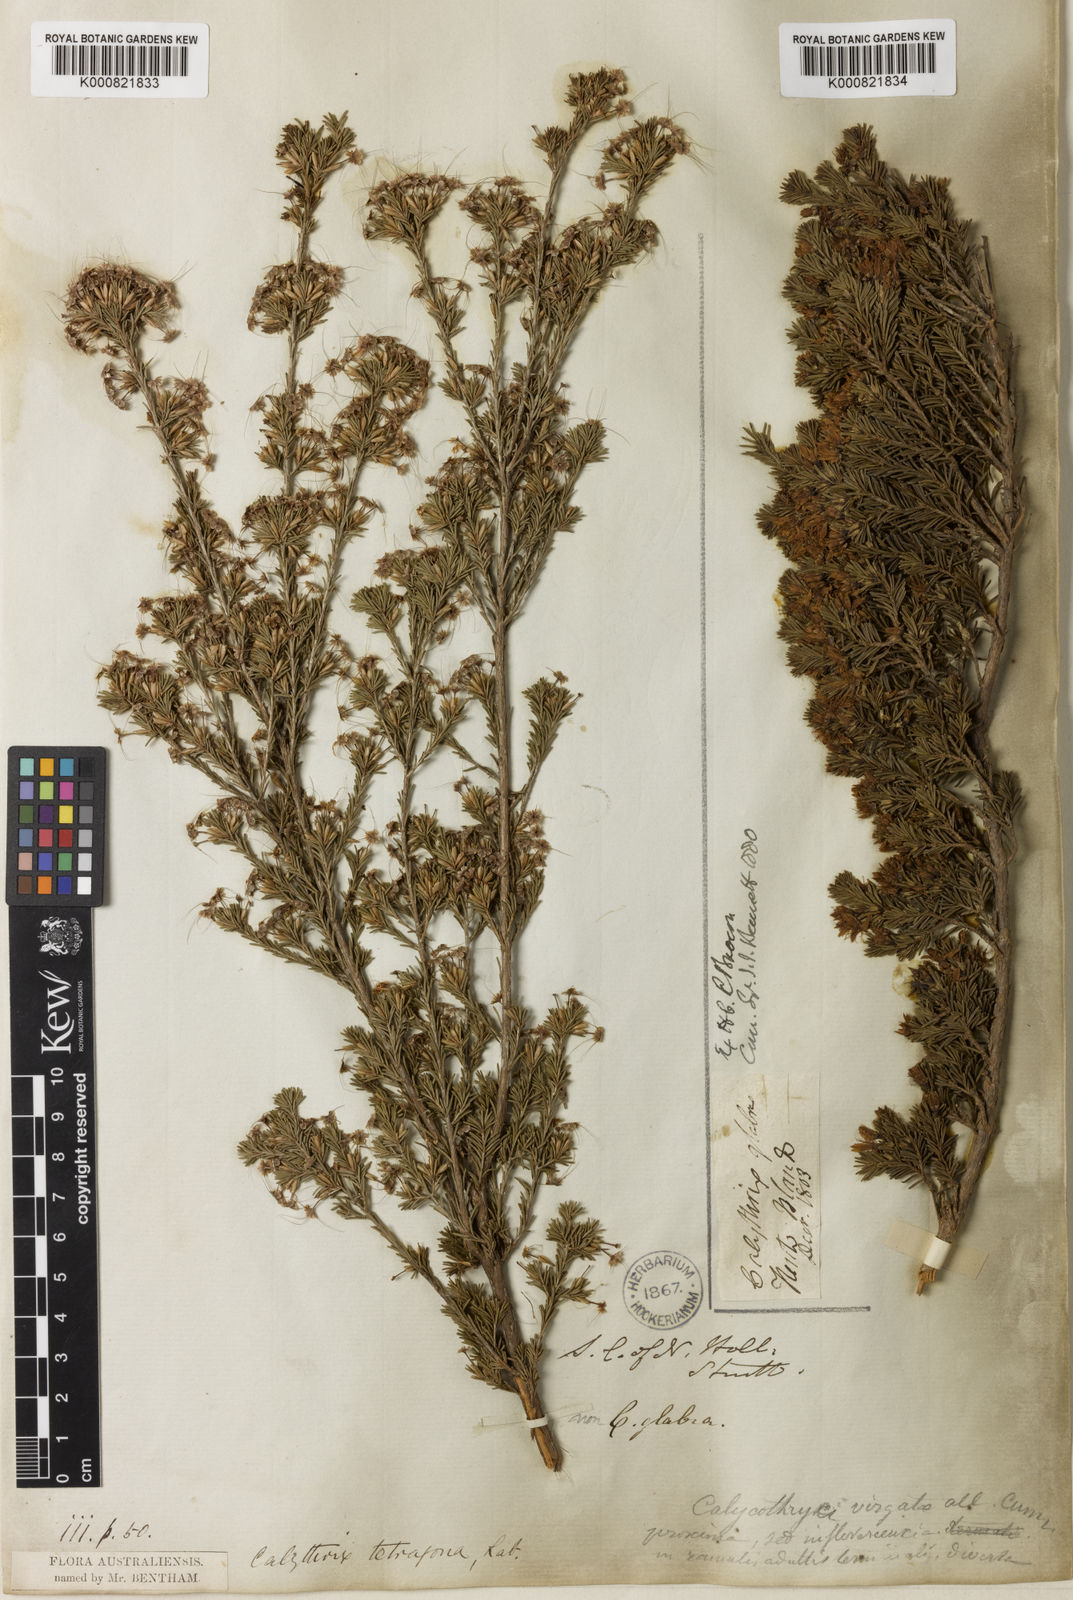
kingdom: Plantae
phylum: Tracheophyta
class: Magnoliopsida
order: Myrtales
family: Myrtaceae
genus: Calytrix
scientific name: Calytrix tetragona
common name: Common fringe myrtle
